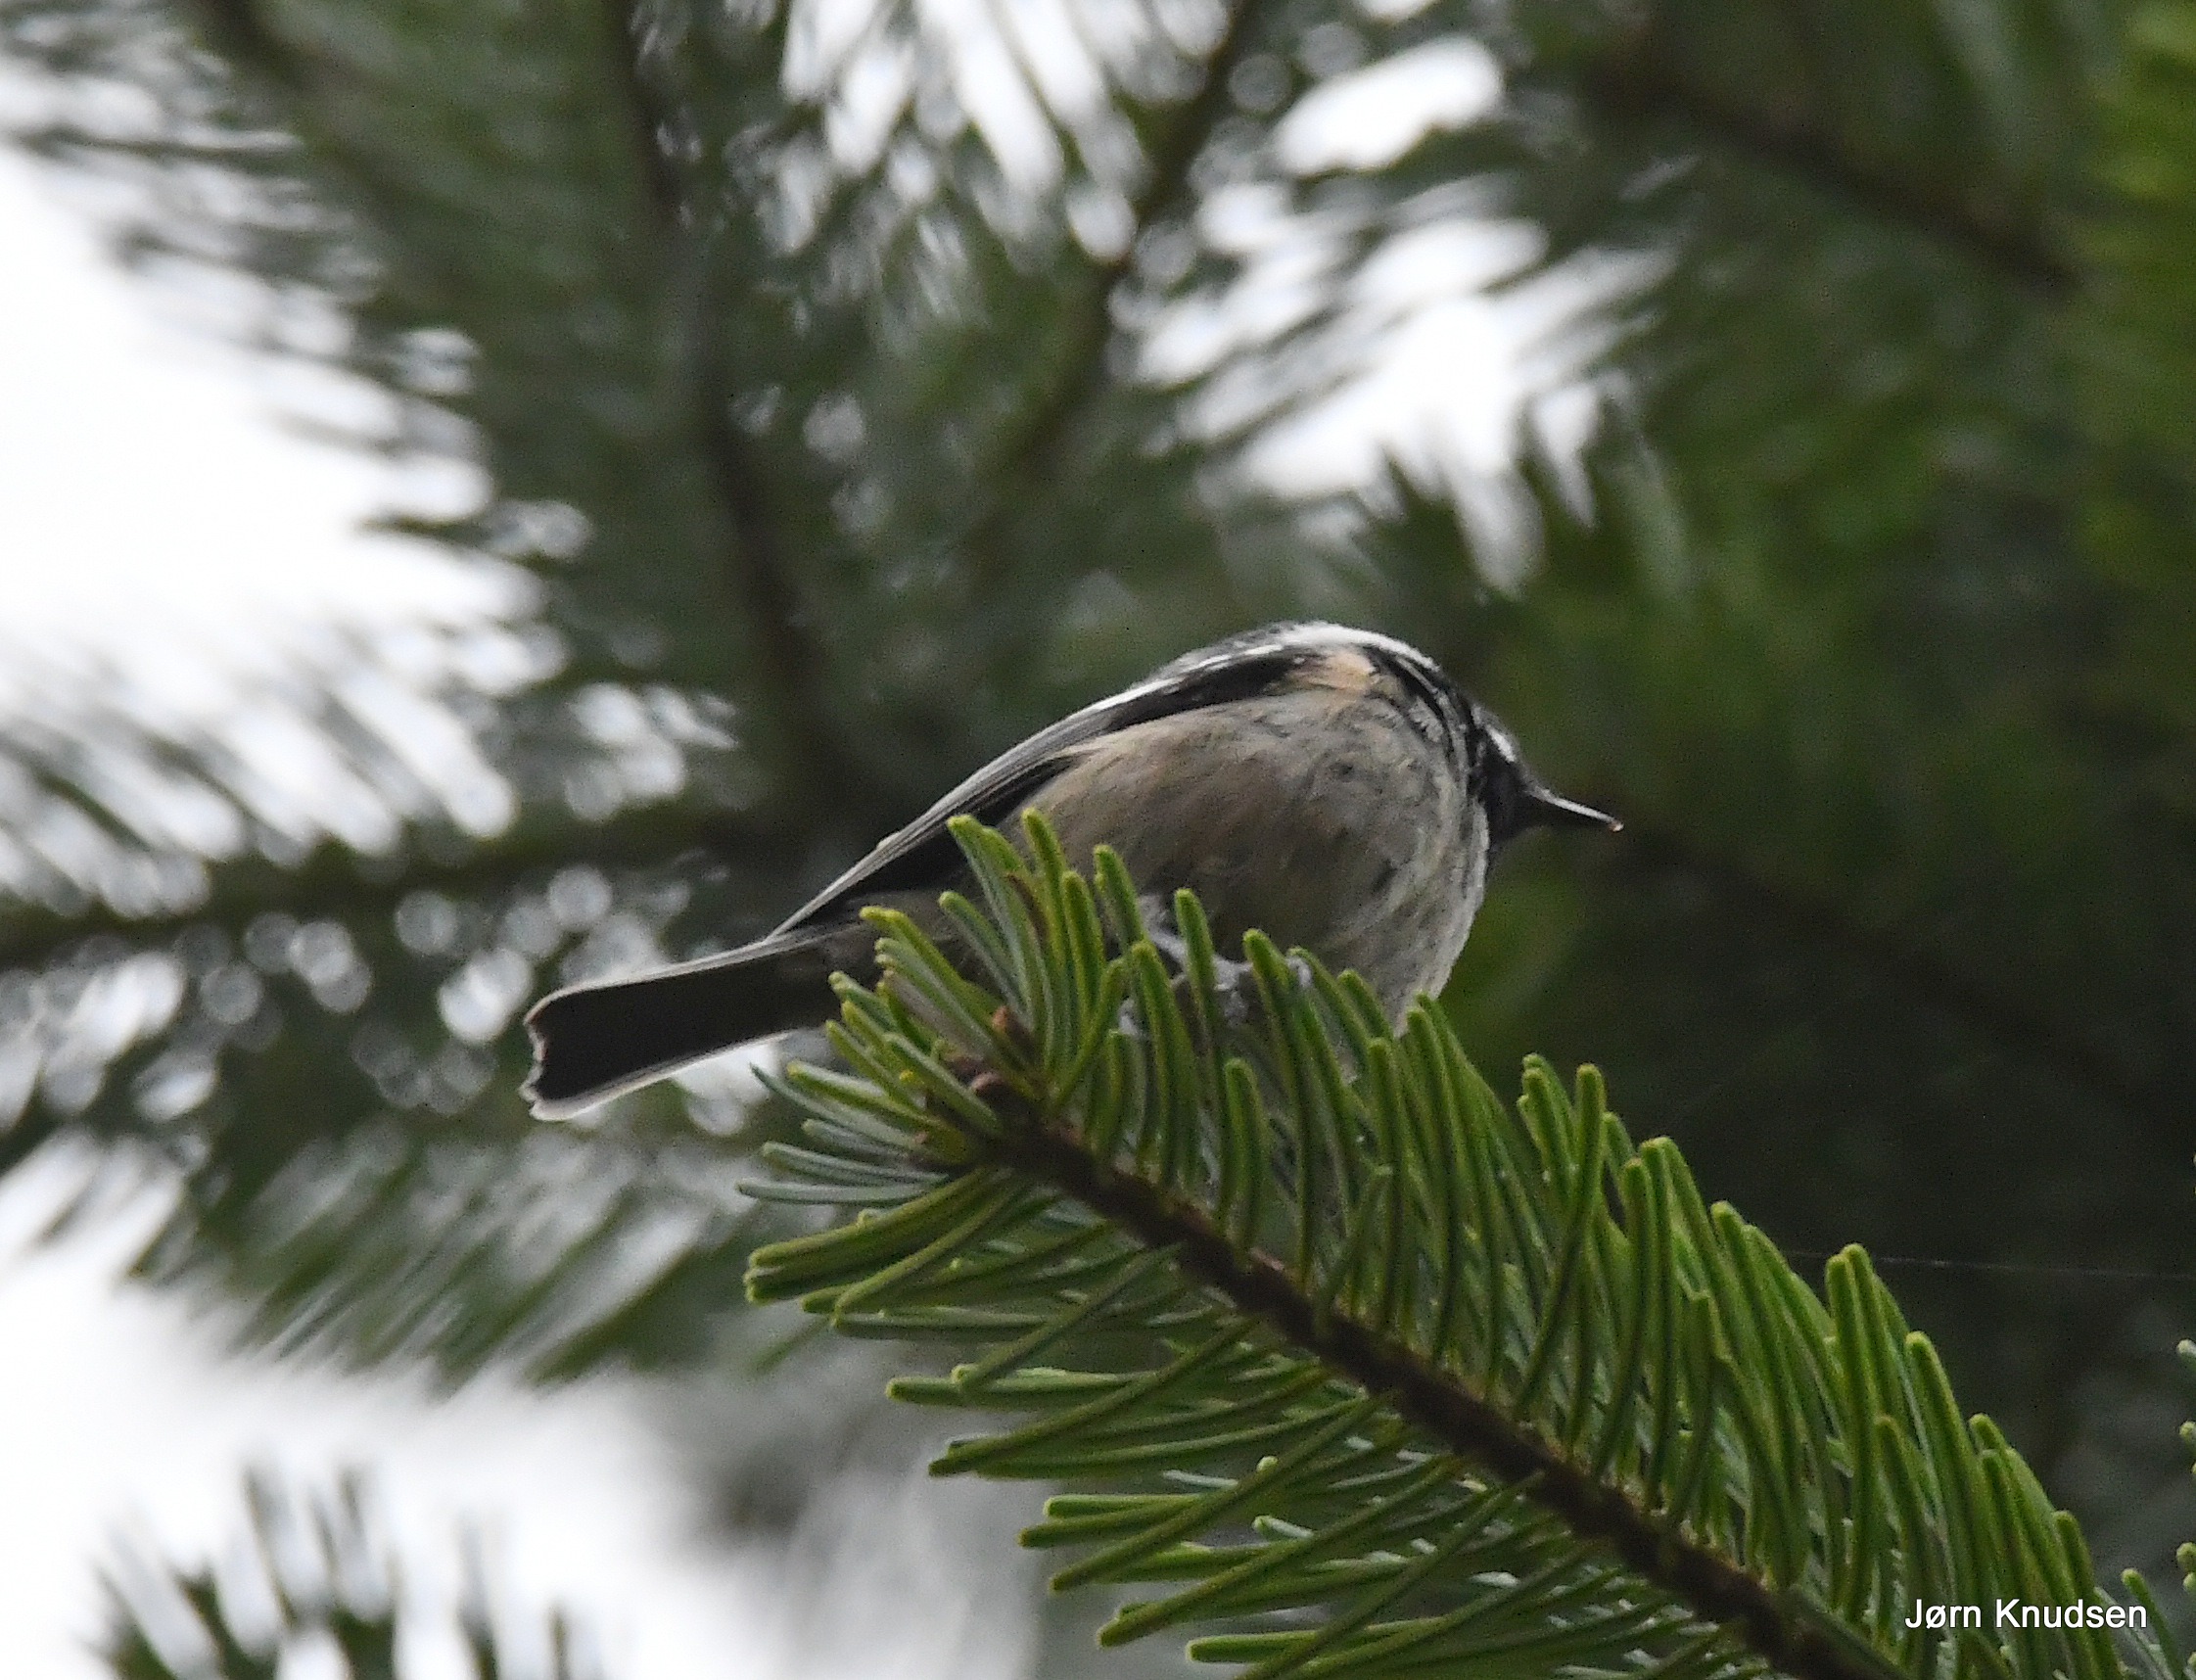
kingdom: Animalia
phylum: Chordata
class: Aves
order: Passeriformes
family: Paridae
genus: Periparus
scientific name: Periparus ater
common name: Sortmejse
